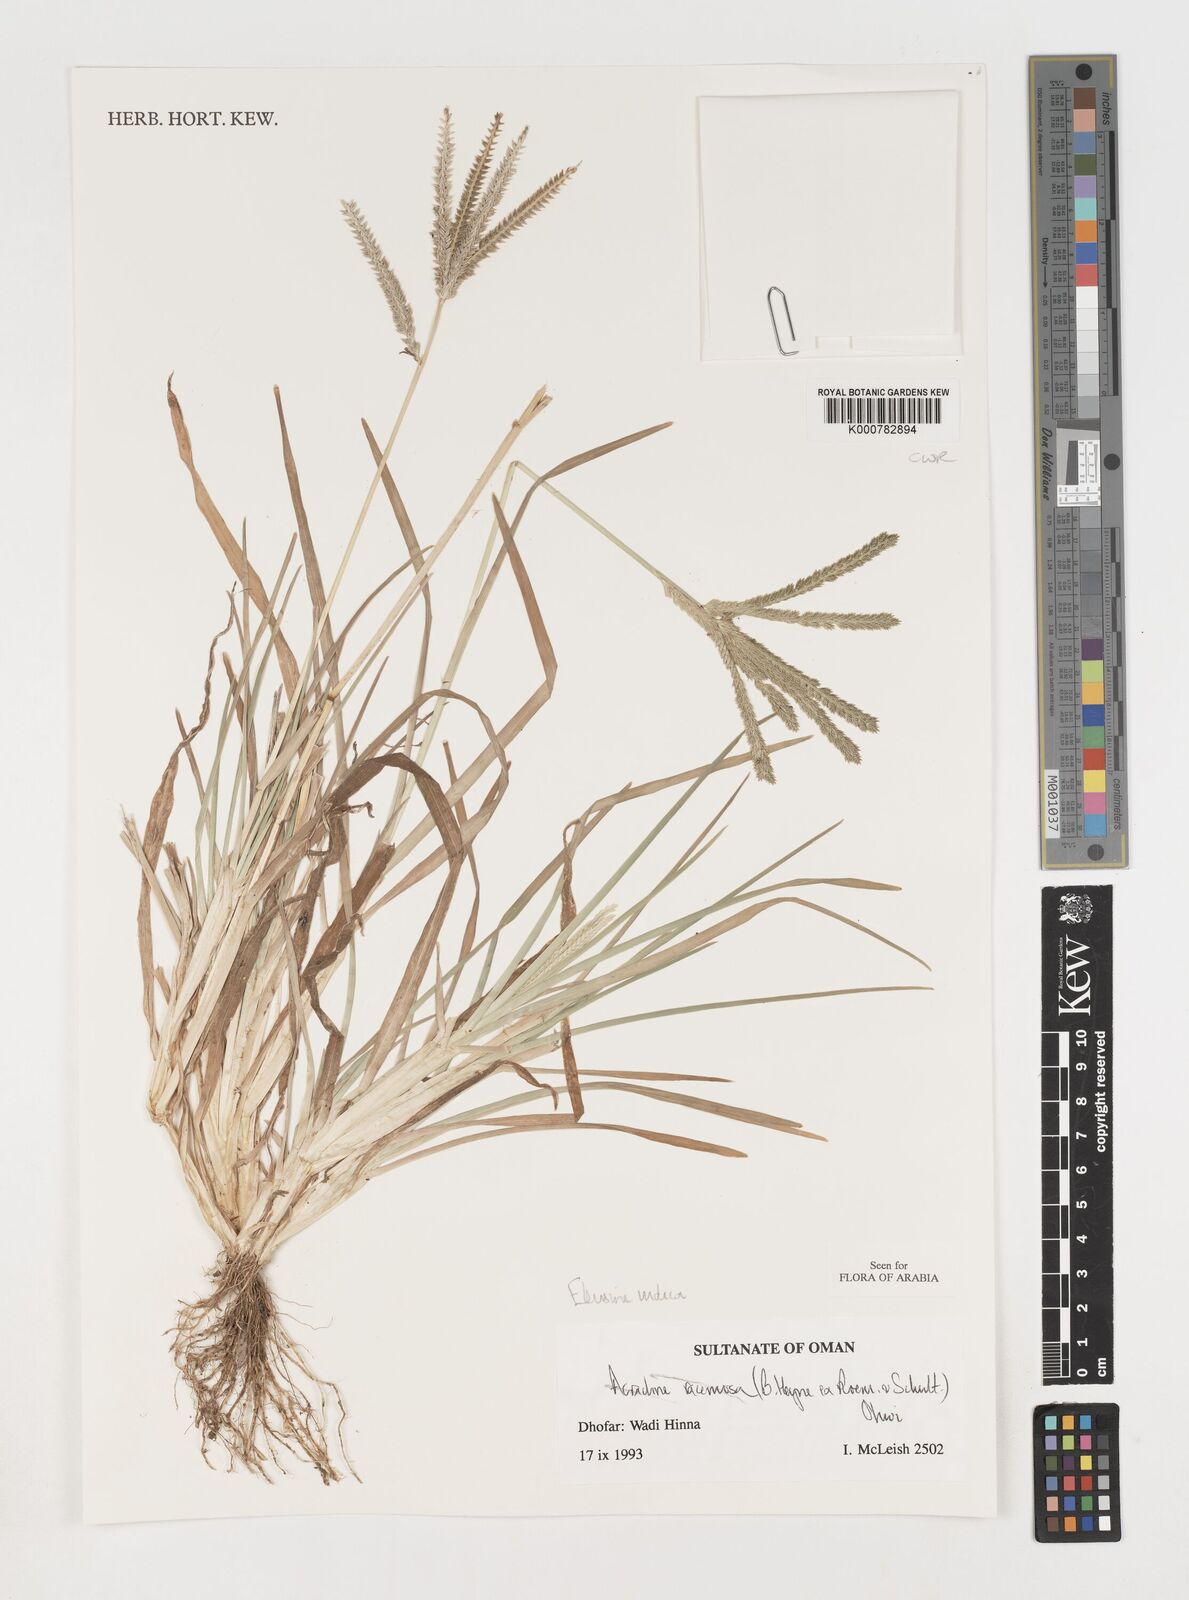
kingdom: Plantae
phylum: Tracheophyta
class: Liliopsida
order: Poales
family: Poaceae
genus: Eleusine
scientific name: Eleusine indica
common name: Yard-grass
